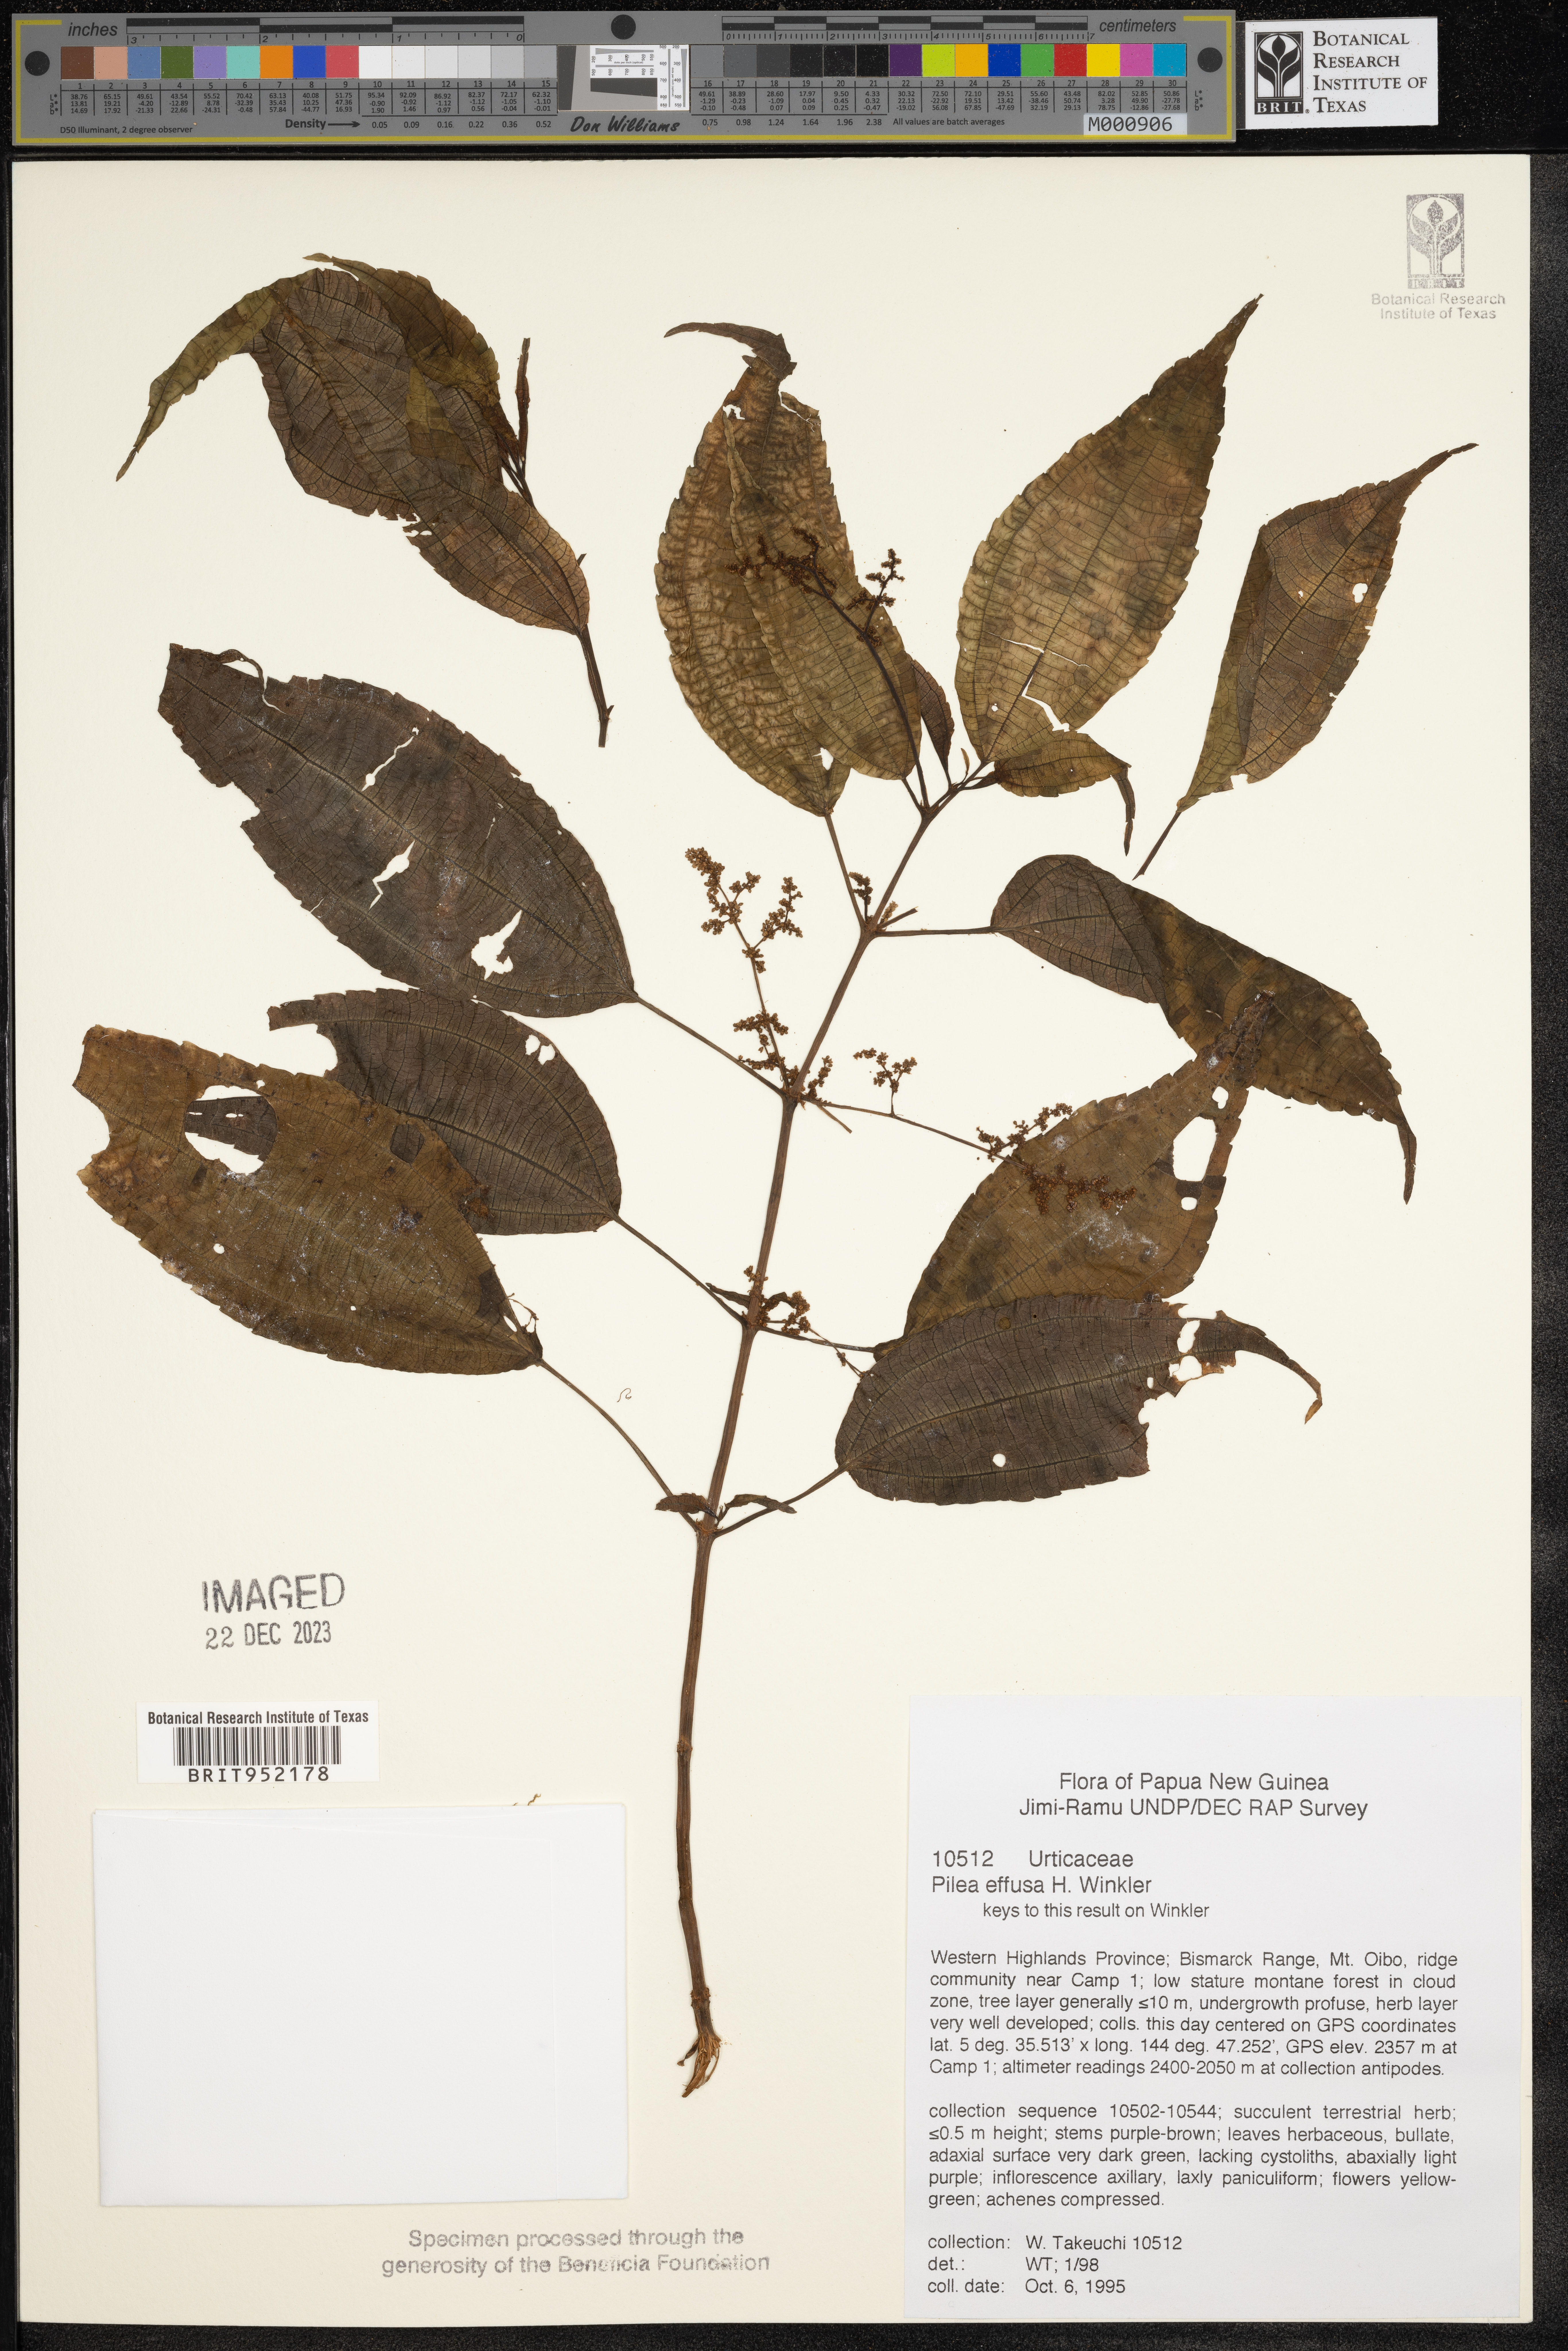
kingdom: Plantae
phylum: Tracheophyta
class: Magnoliopsida
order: Rosales
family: Urticaceae
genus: Pilea
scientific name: Pilea
